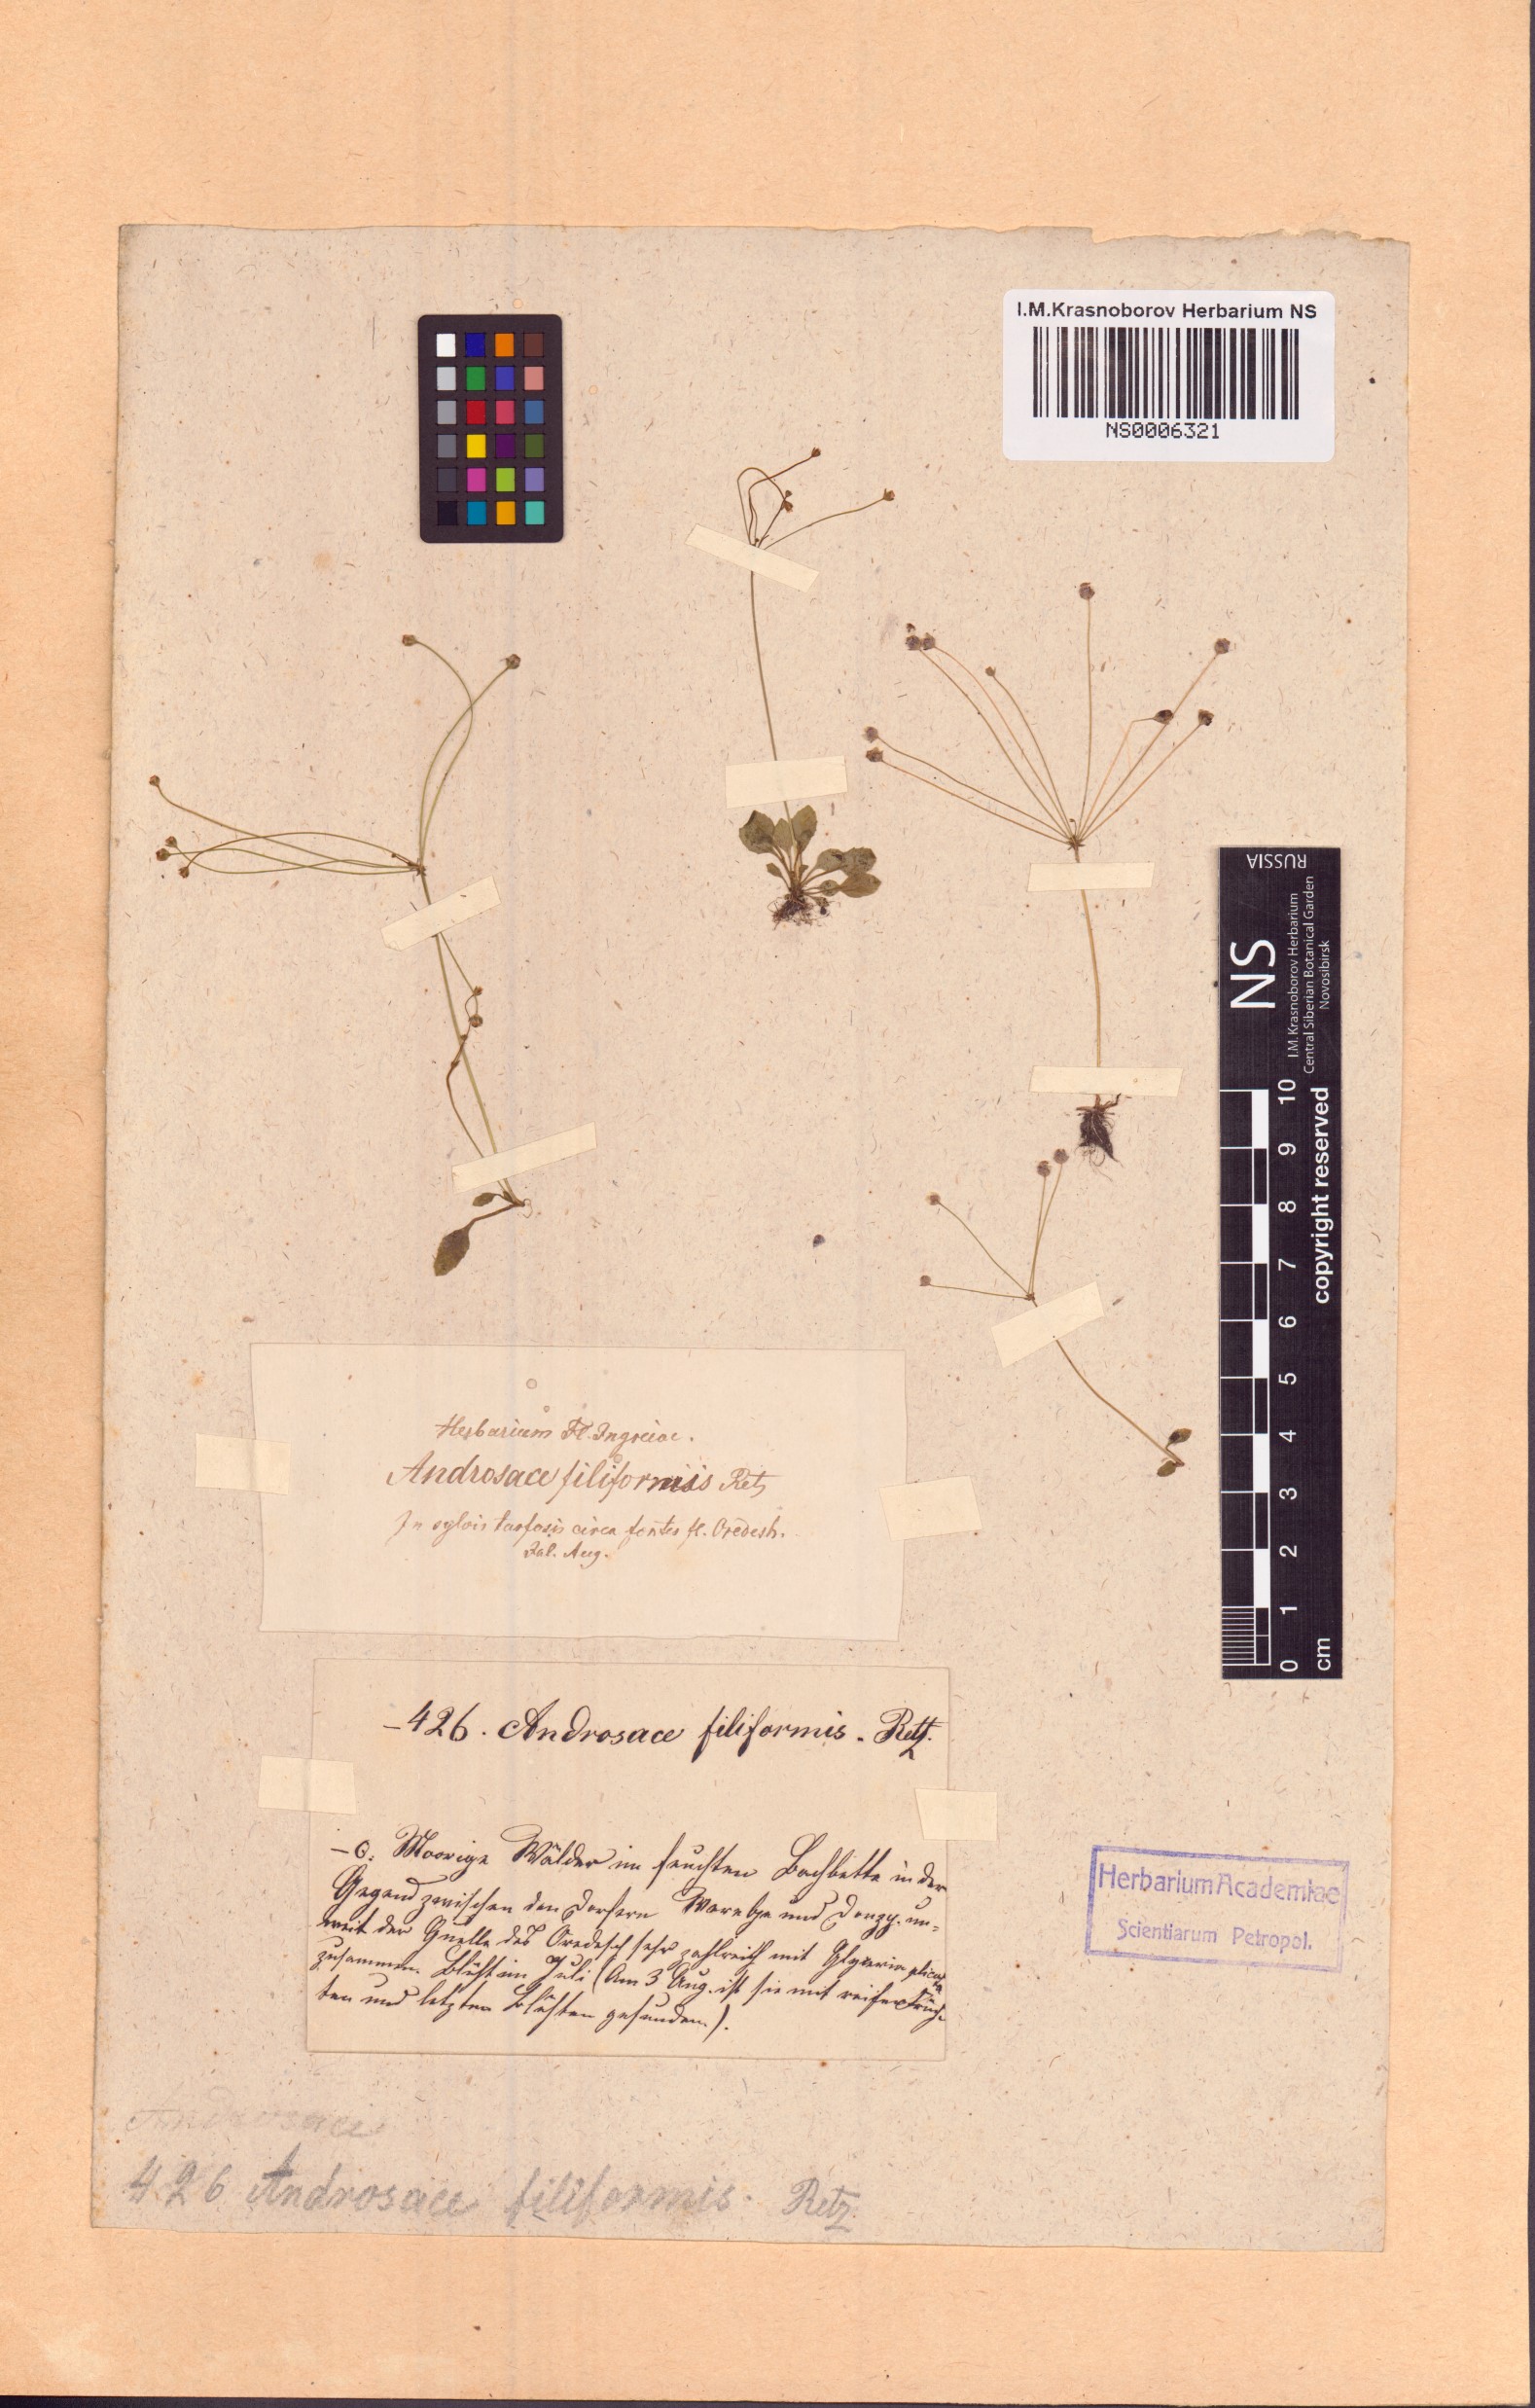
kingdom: Plantae
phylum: Tracheophyta
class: Magnoliopsida
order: Ericales
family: Primulaceae
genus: Androsace
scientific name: Androsace filiformis
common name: Filiform rock jasmine
